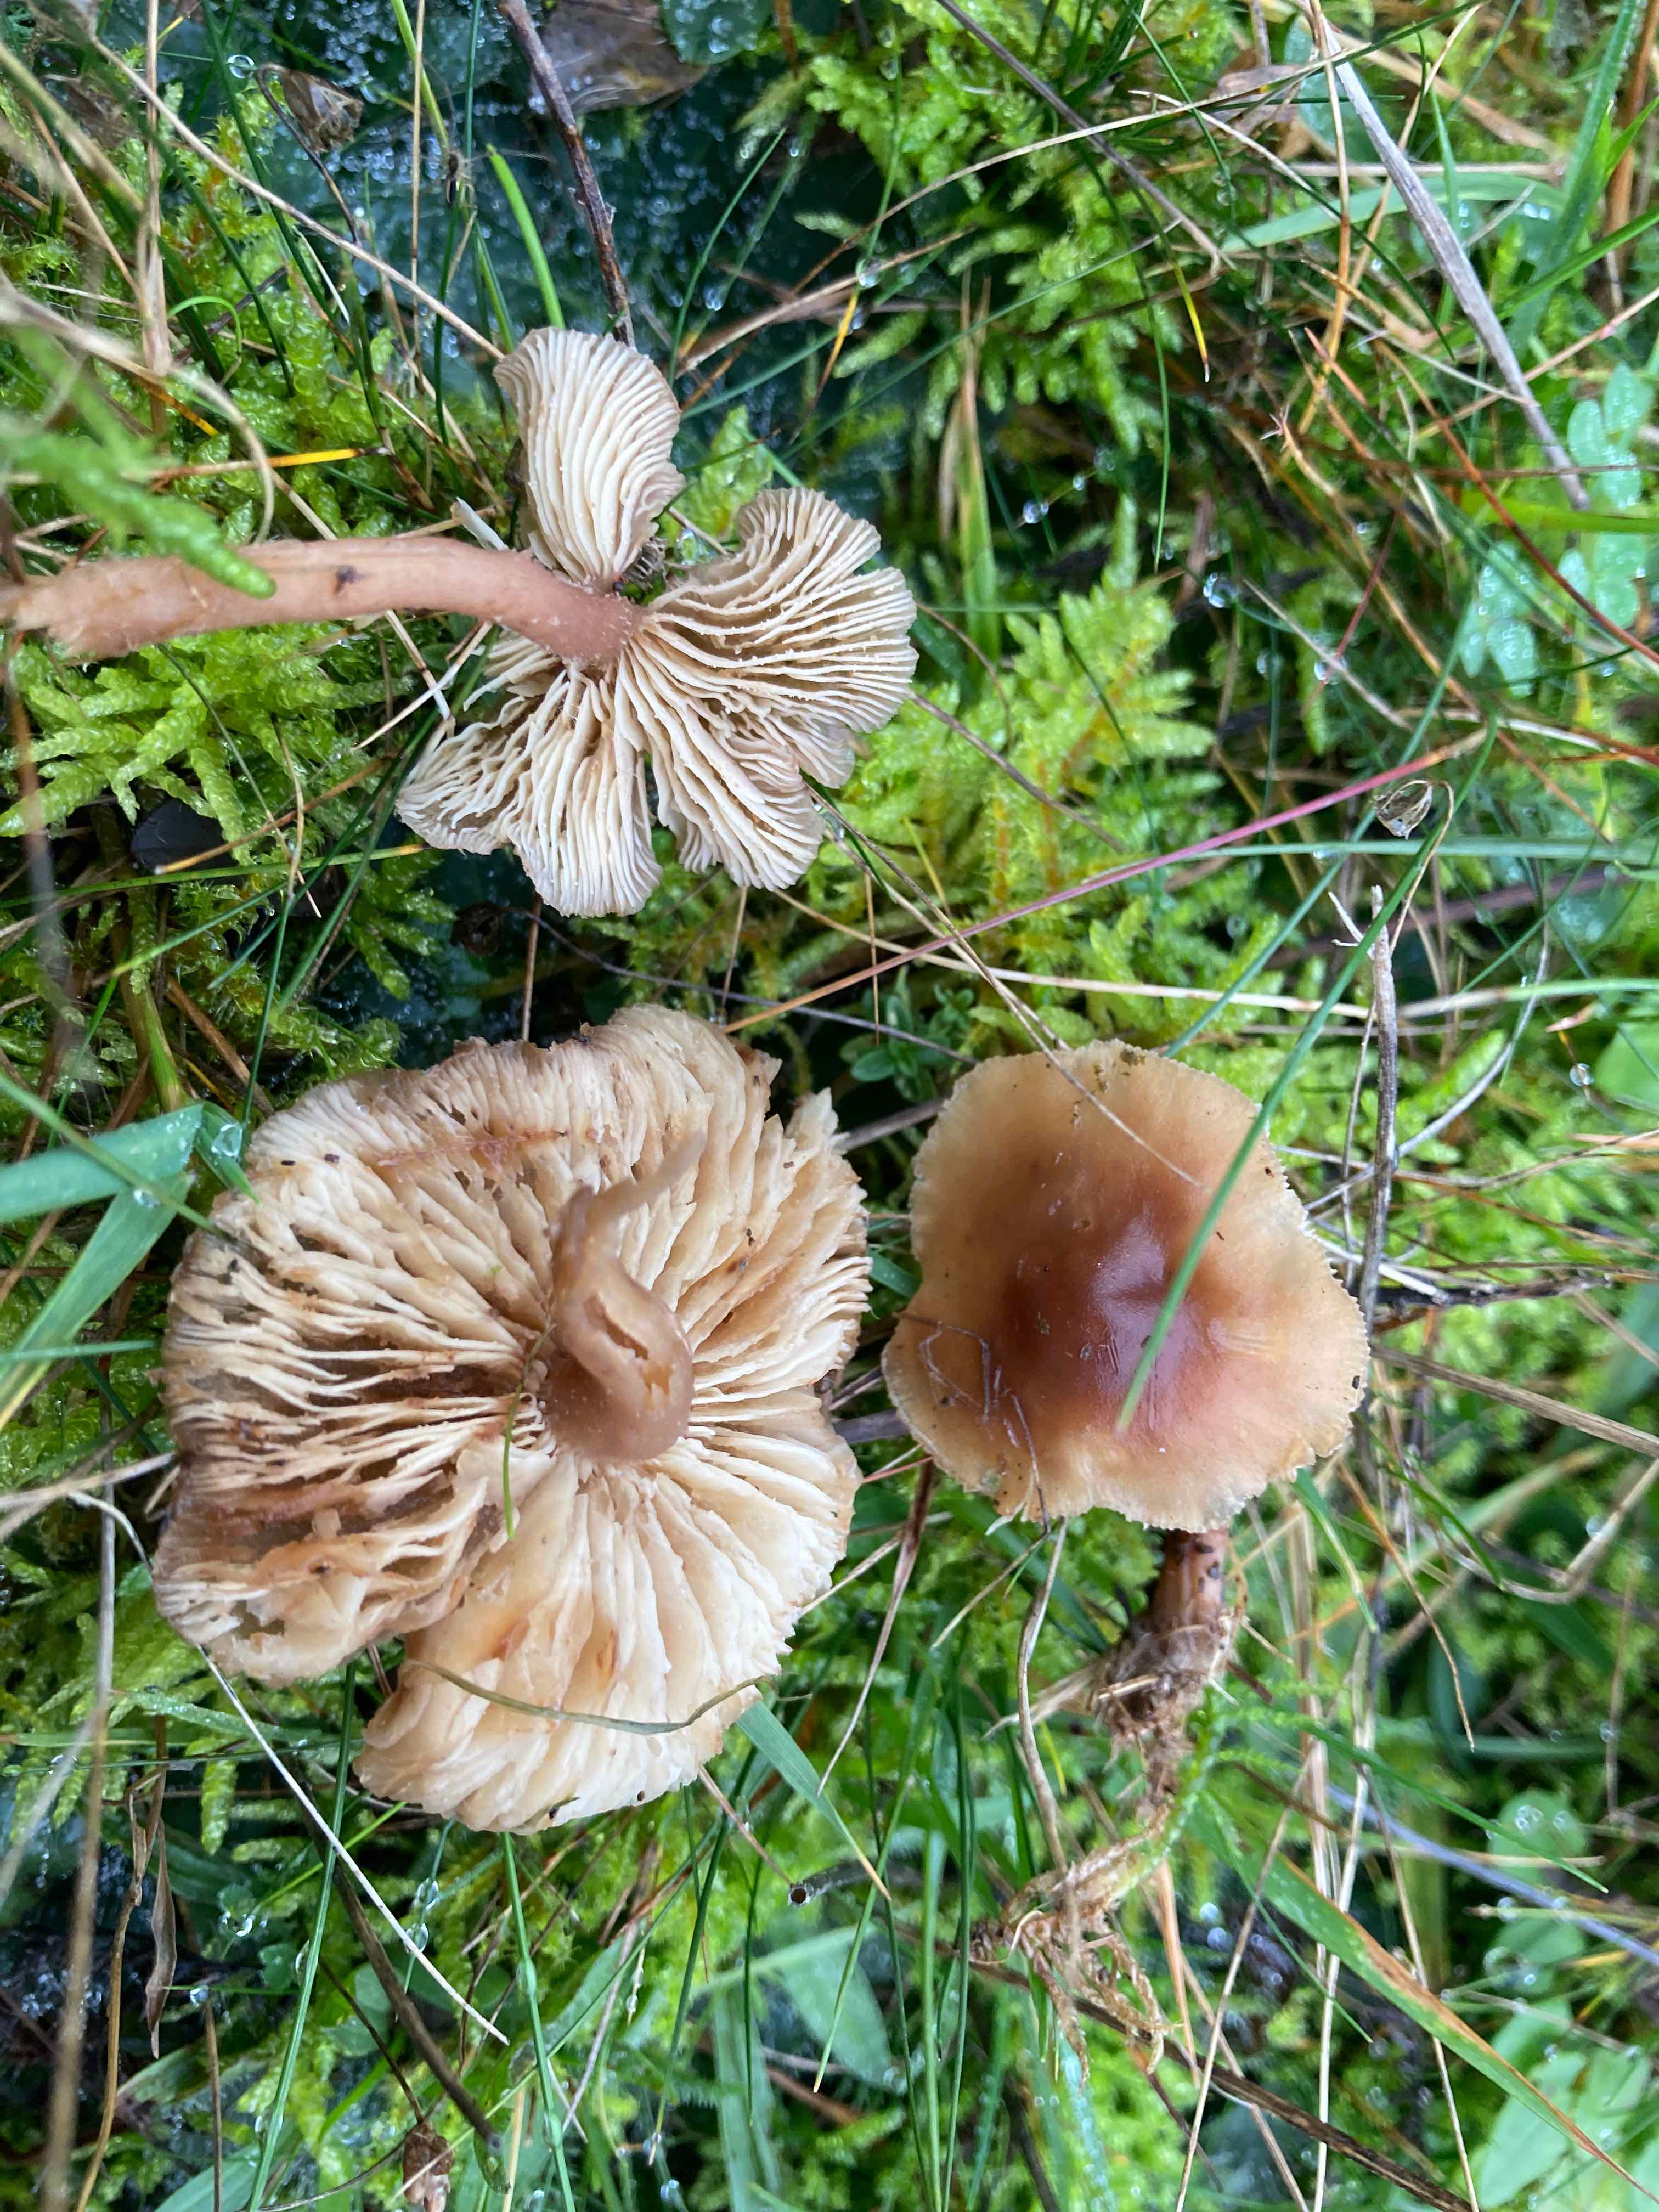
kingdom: Fungi
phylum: Basidiomycota
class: Agaricomycetes
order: Agaricales
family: Lyophyllaceae
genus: Calocybe
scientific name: Calocybe carnea
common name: rosa fagerhat
